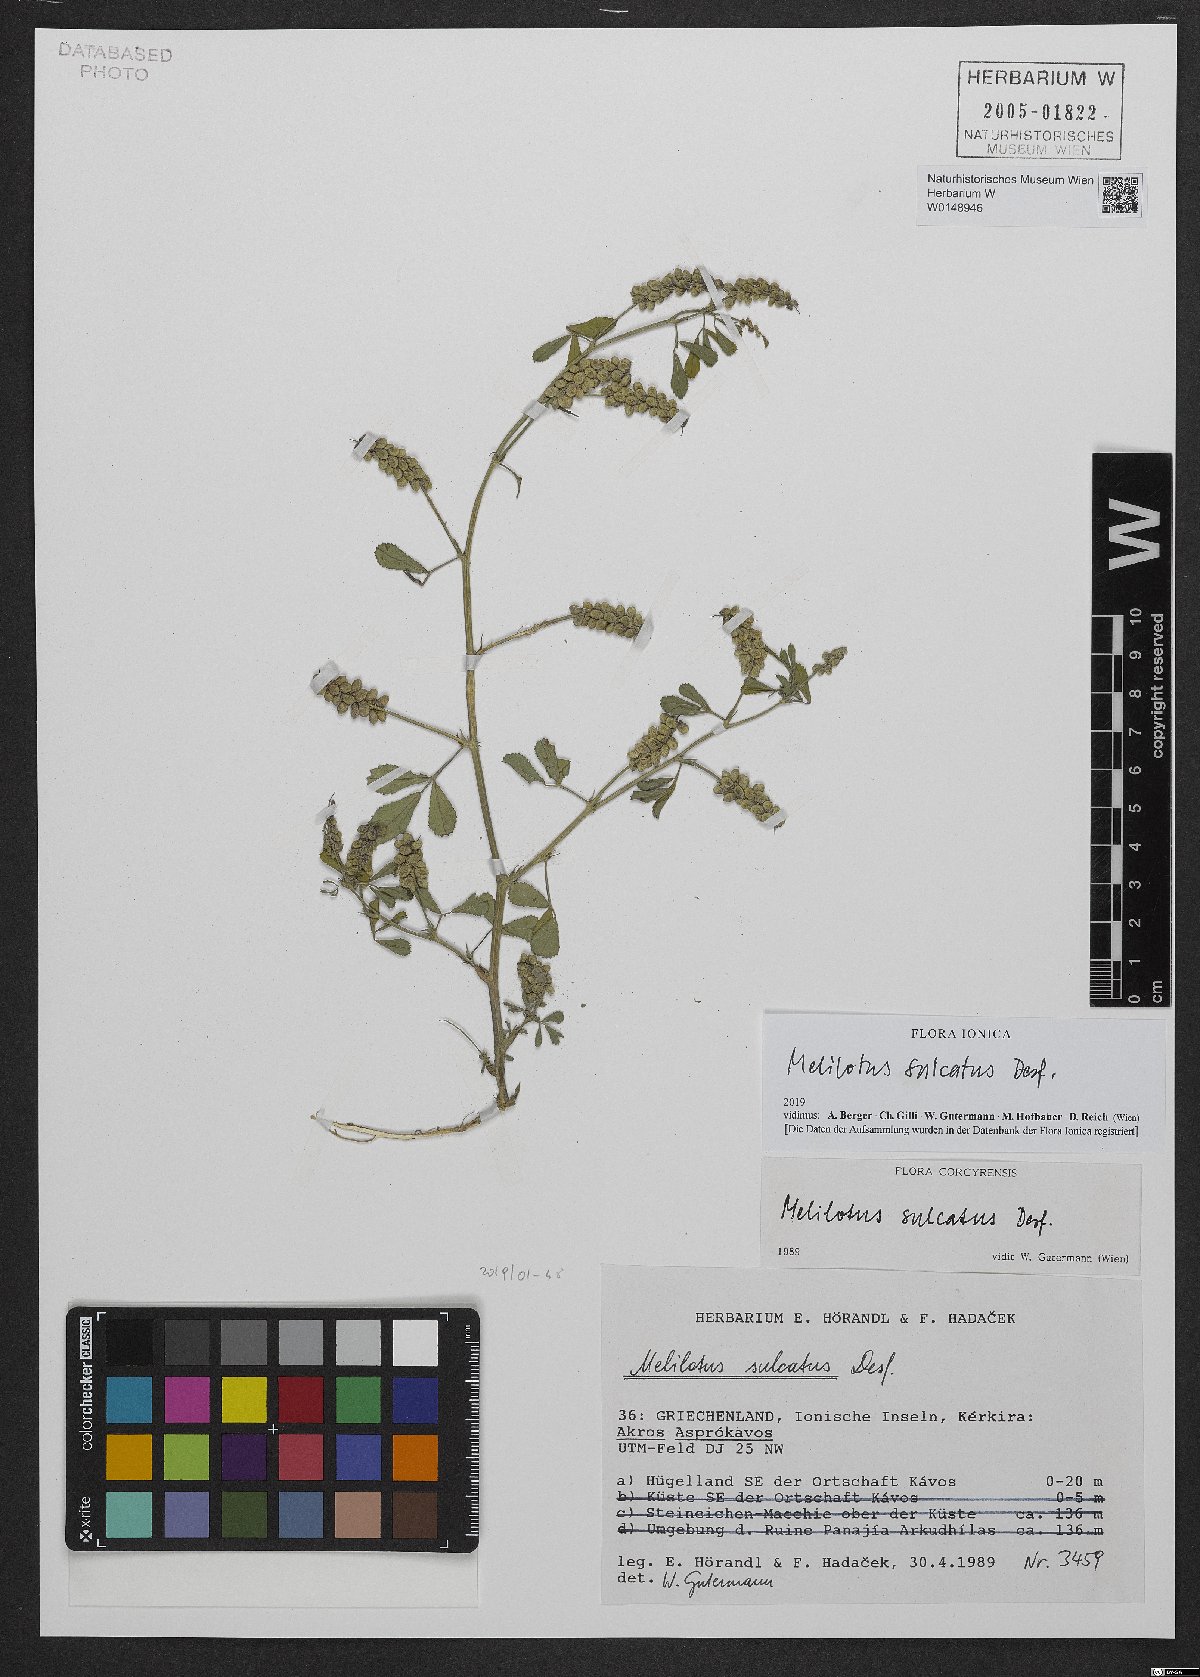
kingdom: Plantae
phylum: Tracheophyta
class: Magnoliopsida
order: Fabales
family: Fabaceae
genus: Melilotus
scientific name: Melilotus sulcatus
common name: Furrowed melilot
